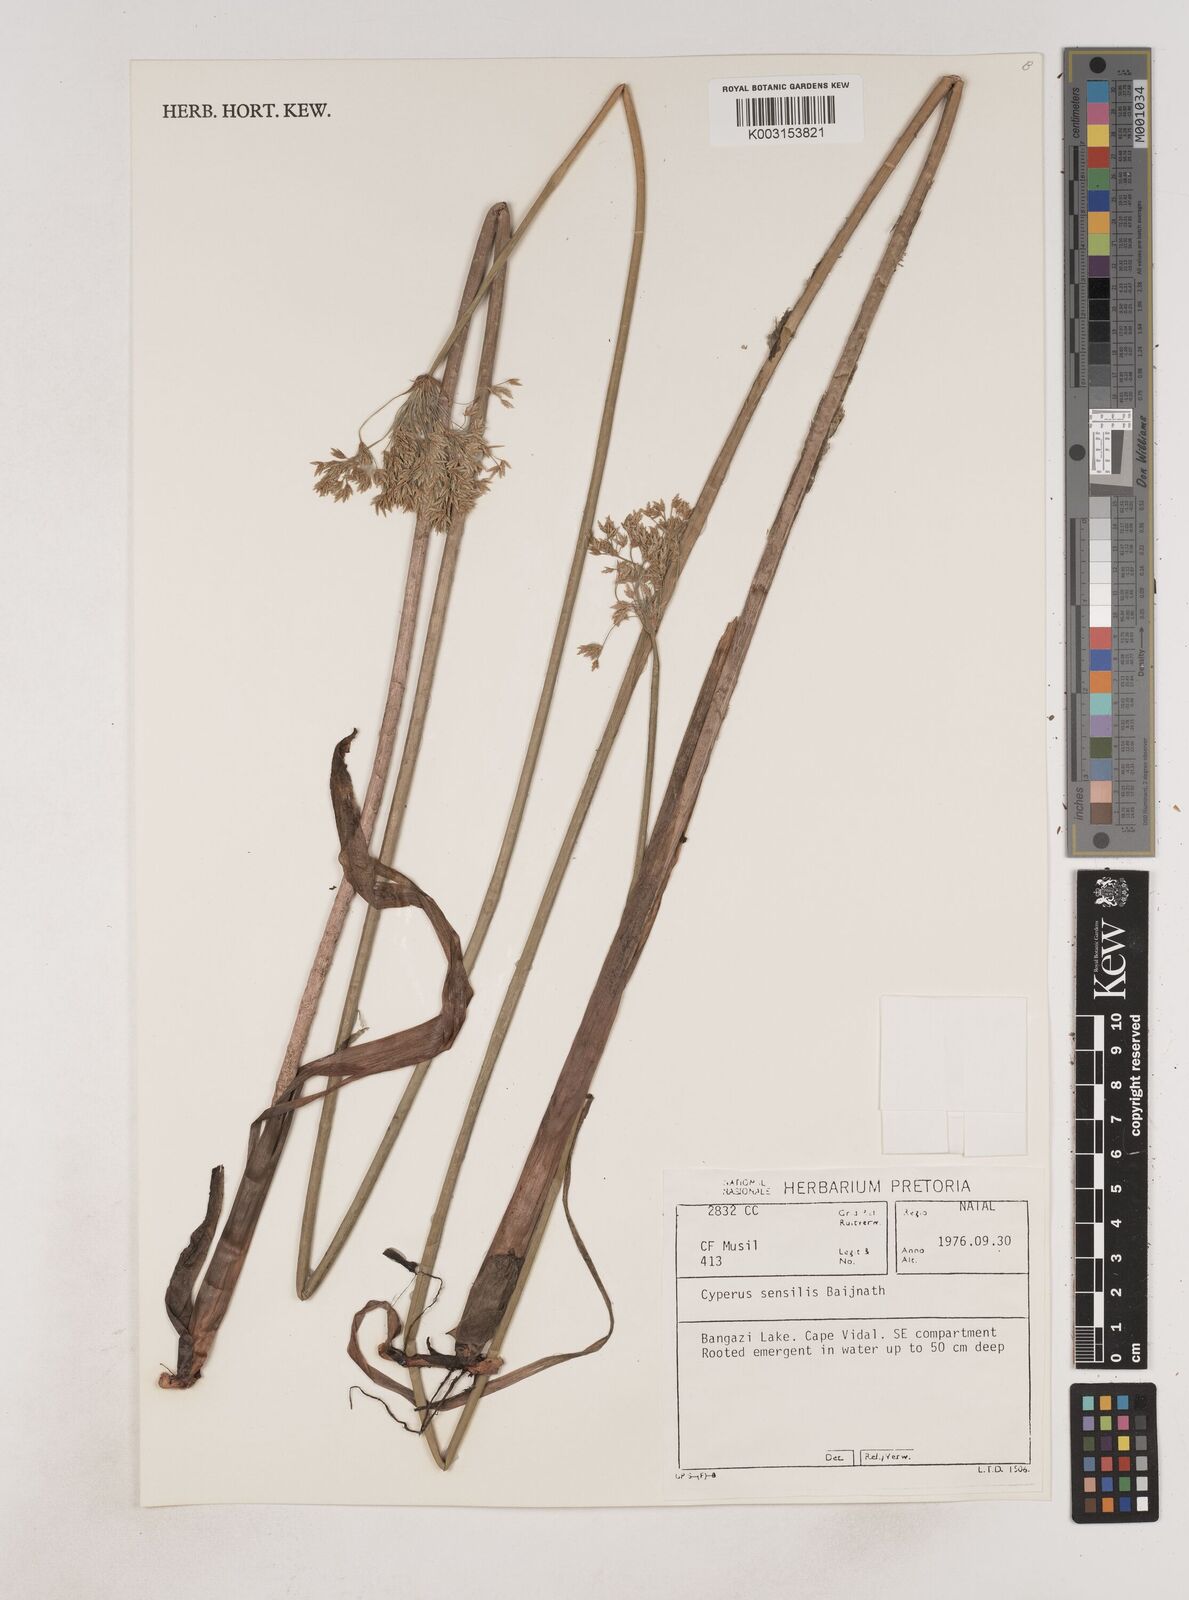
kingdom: Plantae
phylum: Tracheophyta
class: Liliopsida
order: Poales
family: Cyperaceae
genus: Cyperus
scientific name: Cyperus sensilis
